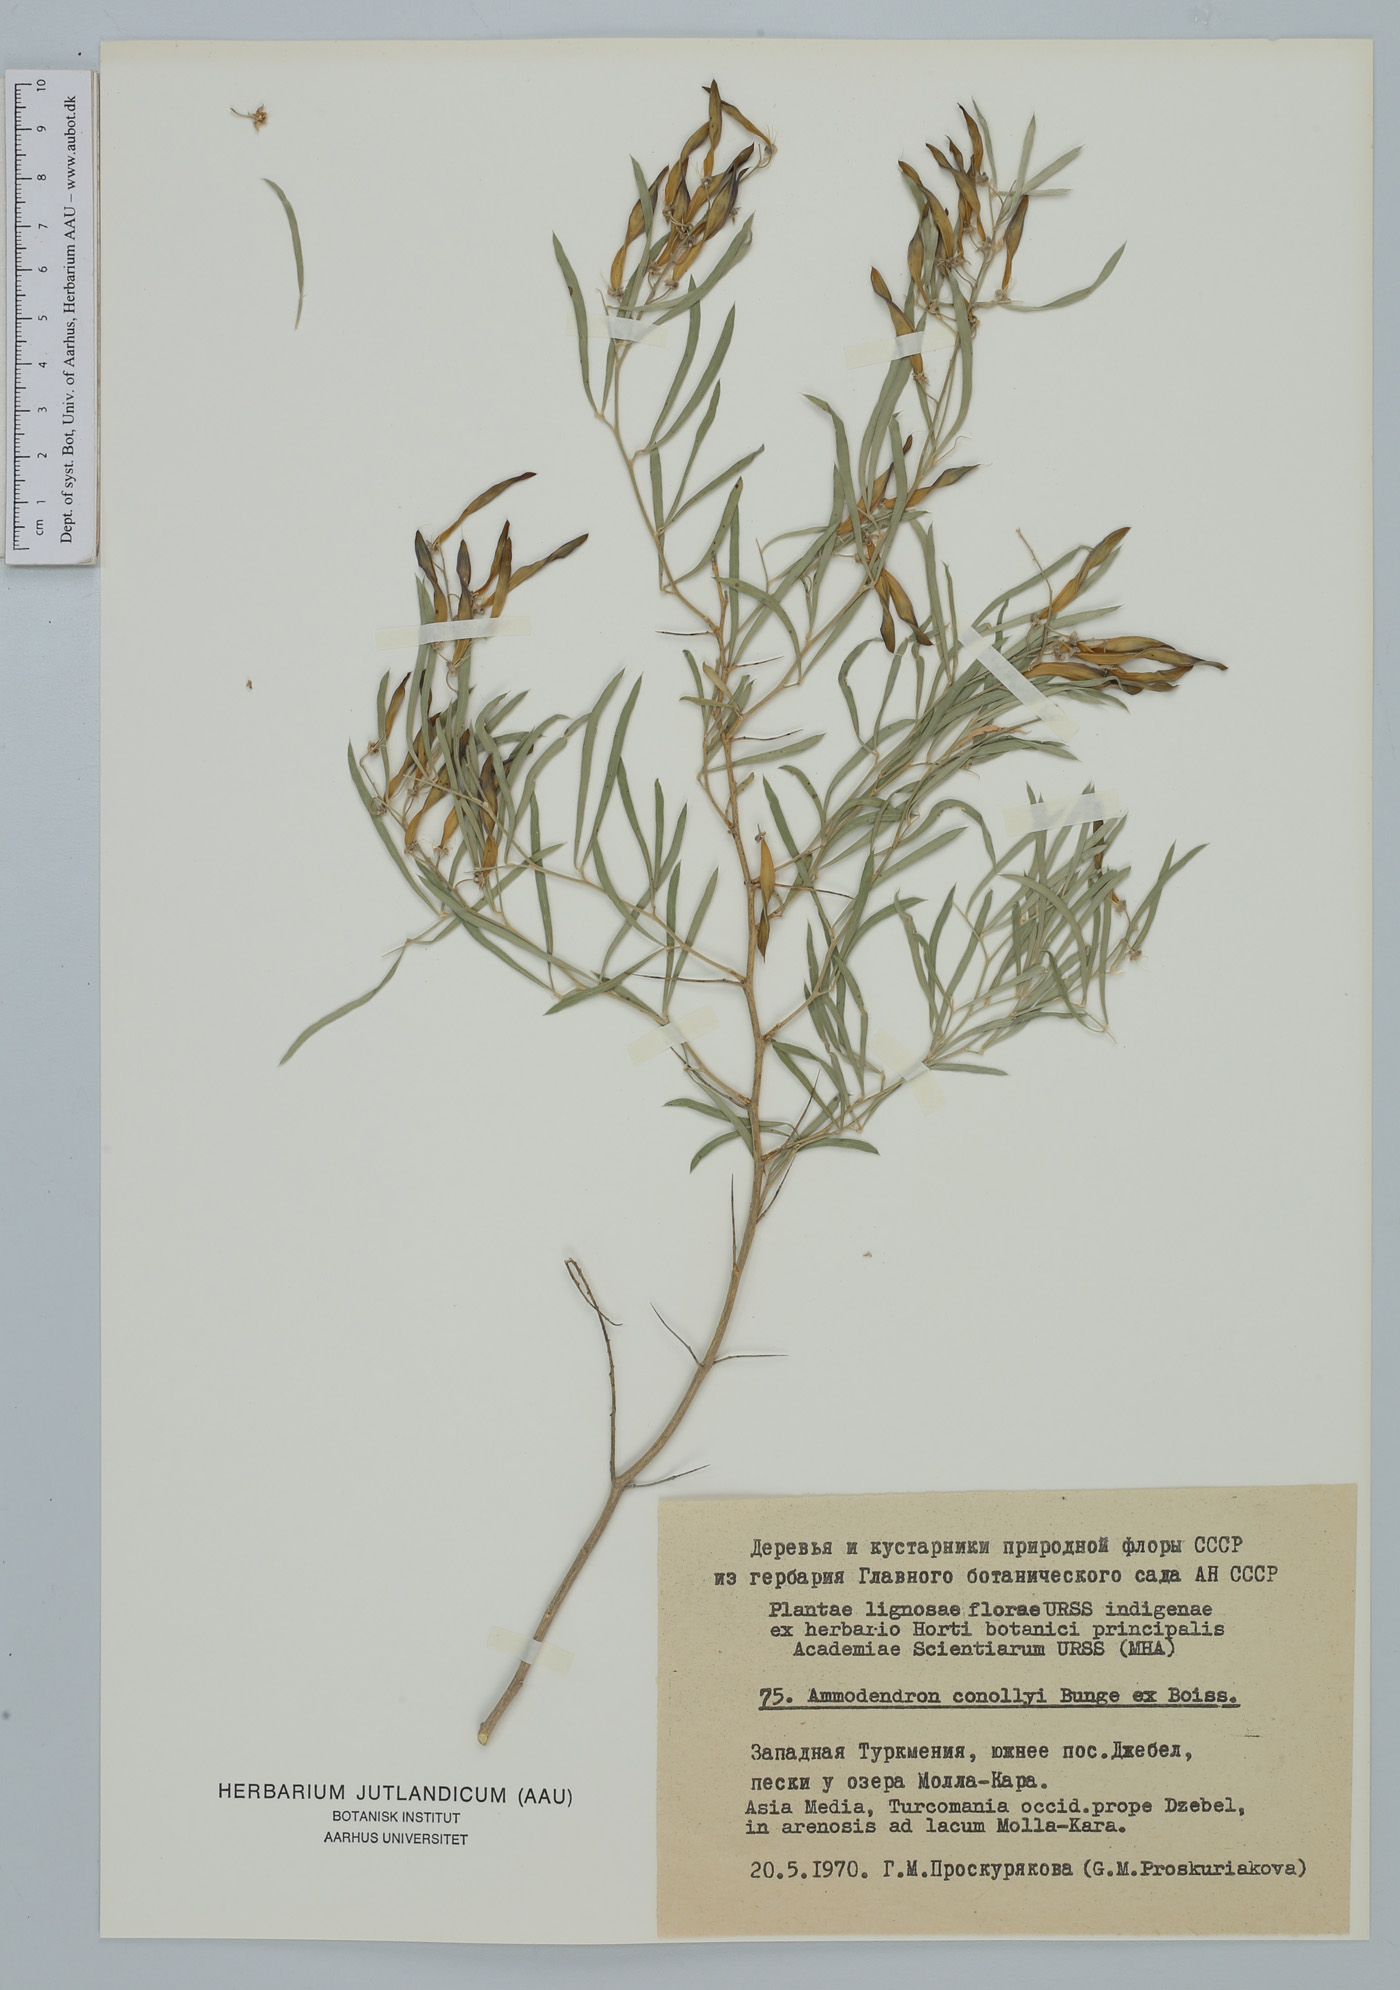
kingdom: Plantae
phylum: Tracheophyta
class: Magnoliopsida
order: Fabales
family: Fabaceae
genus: Ammodendron
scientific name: Ammodendron conollyi
